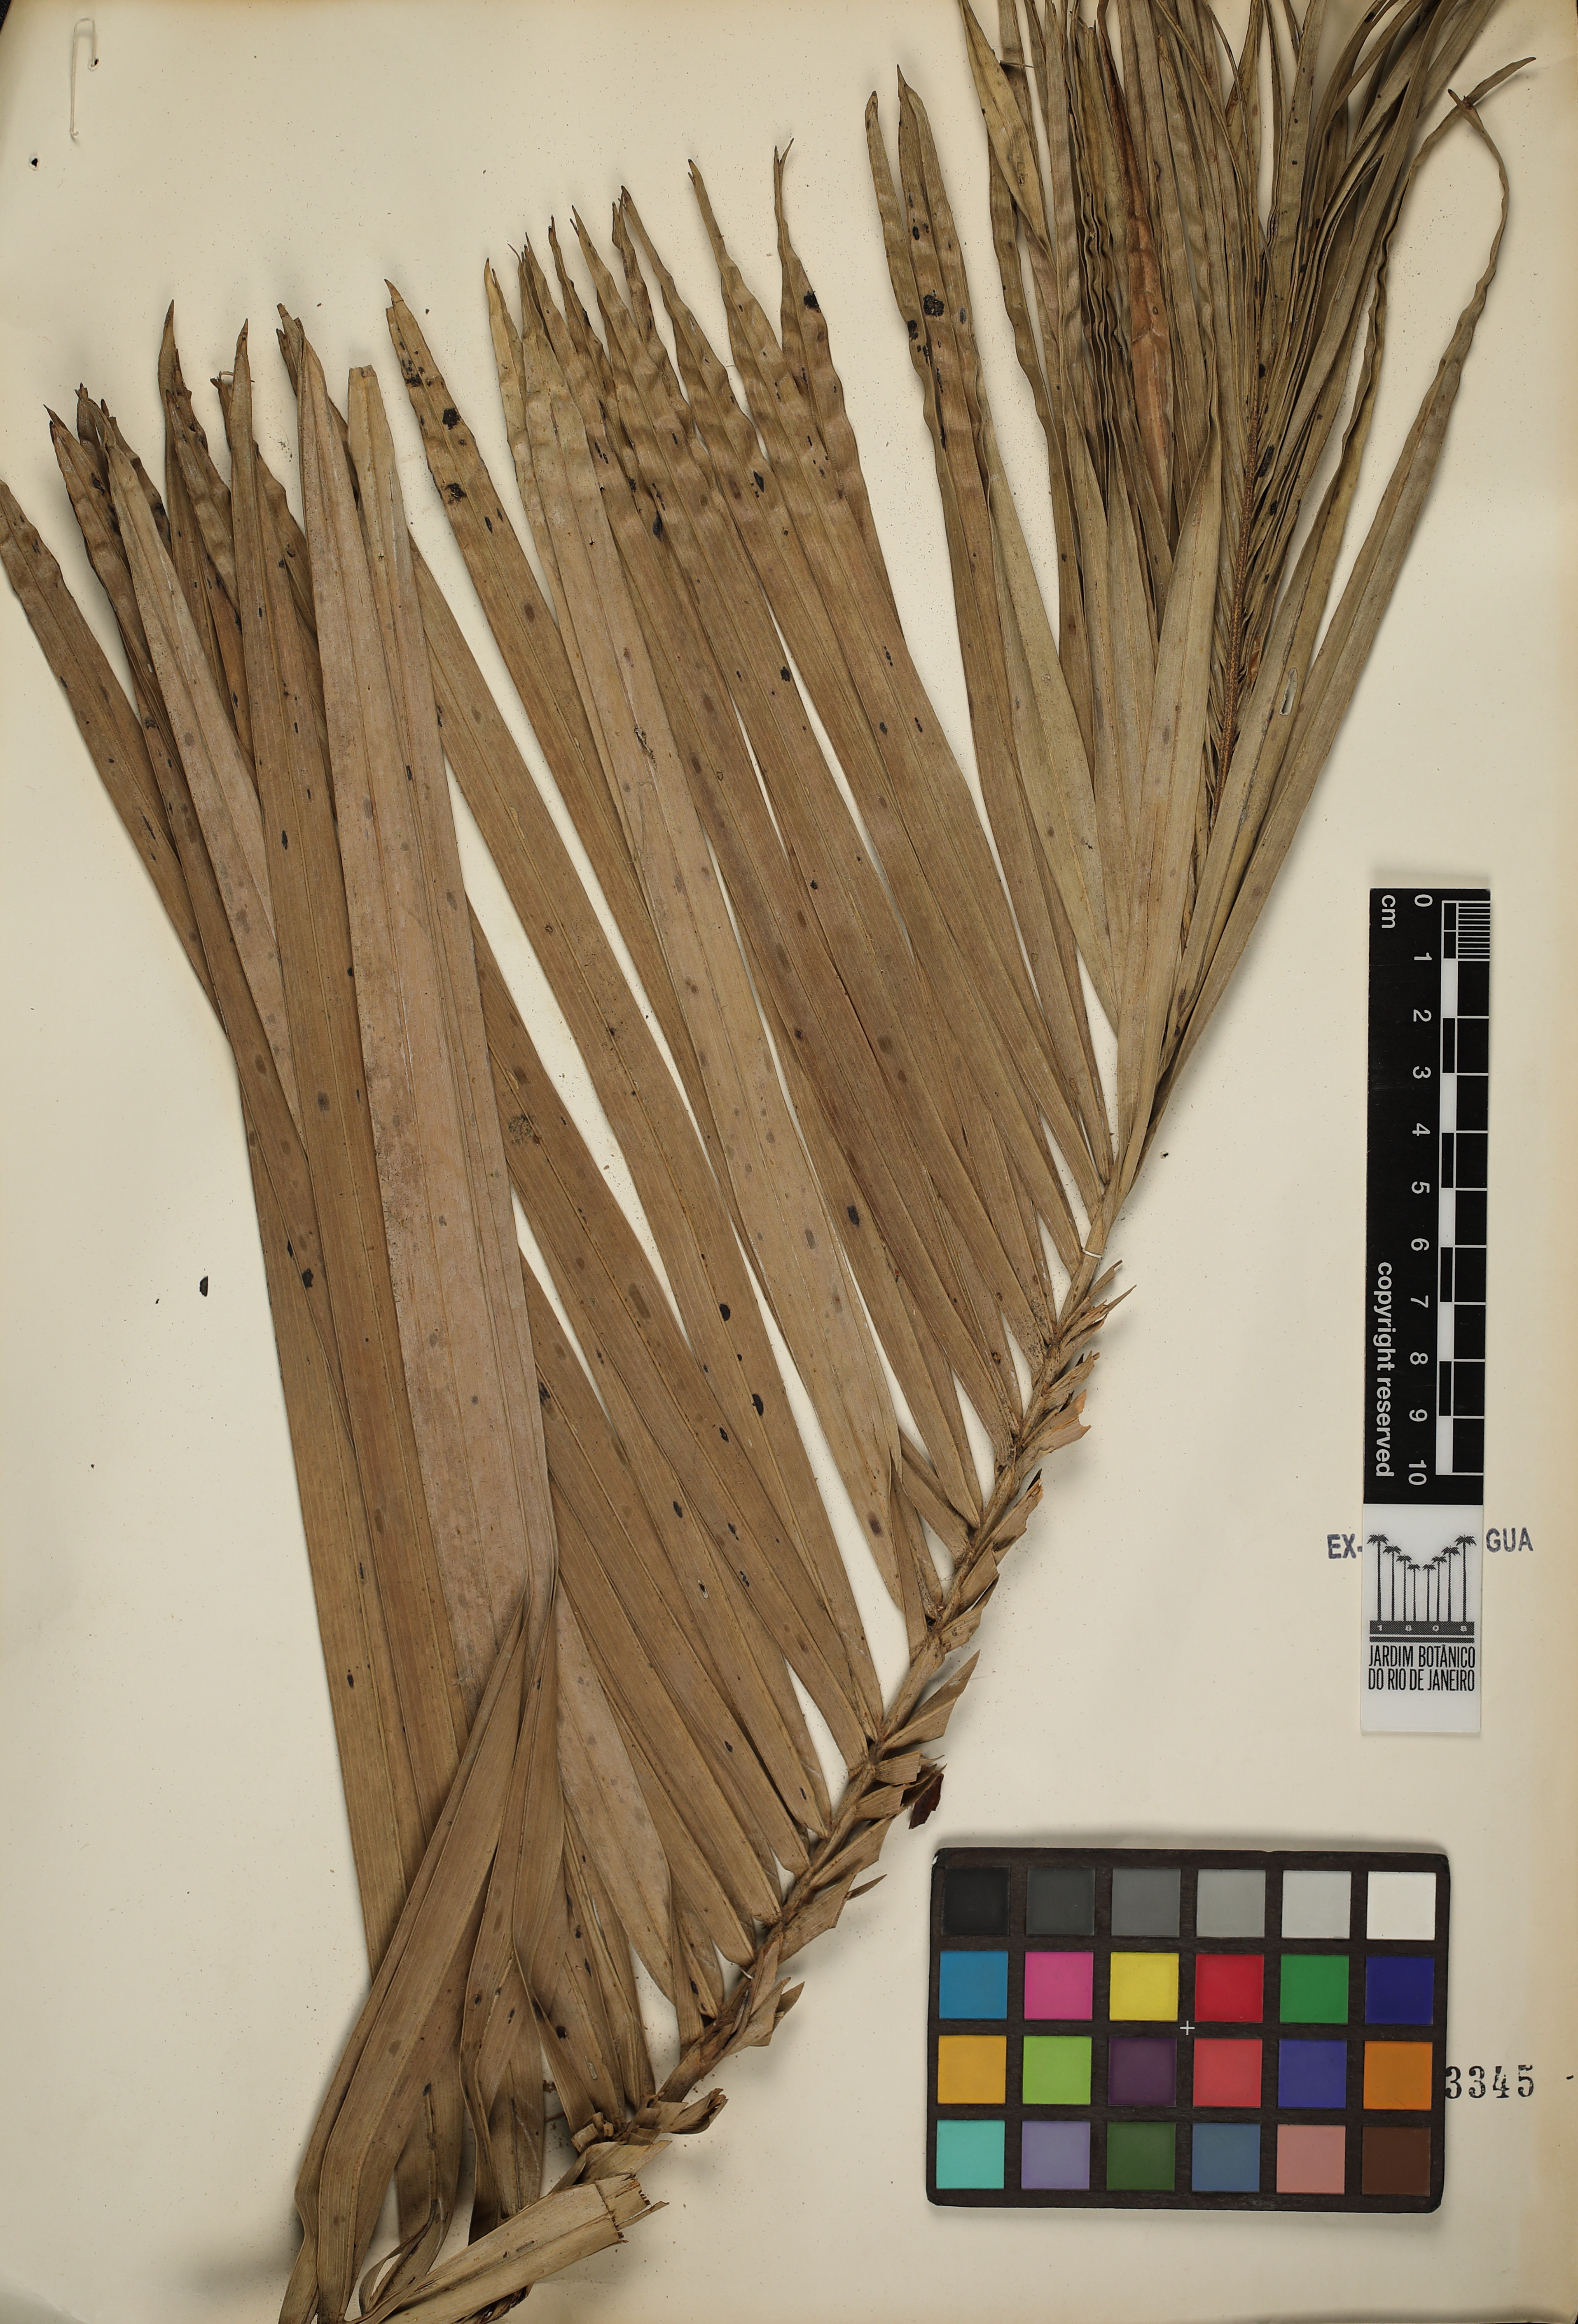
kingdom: Plantae
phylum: Tracheophyta
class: Liliopsida
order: Arecales
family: Arecaceae
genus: Attalea
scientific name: Attalea exigua
